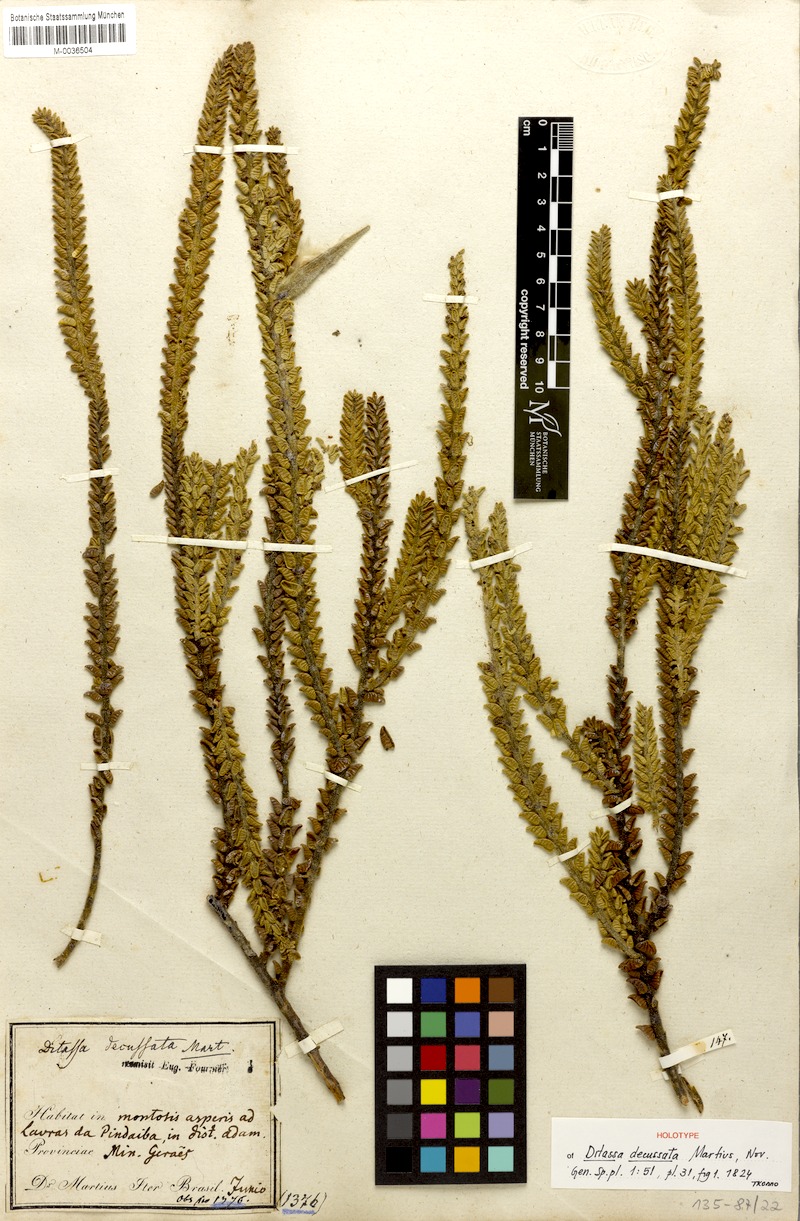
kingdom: Plantae
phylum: Tracheophyta
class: Magnoliopsida
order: Gentianales
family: Apocynaceae
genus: Minaria
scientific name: Minaria decussata
